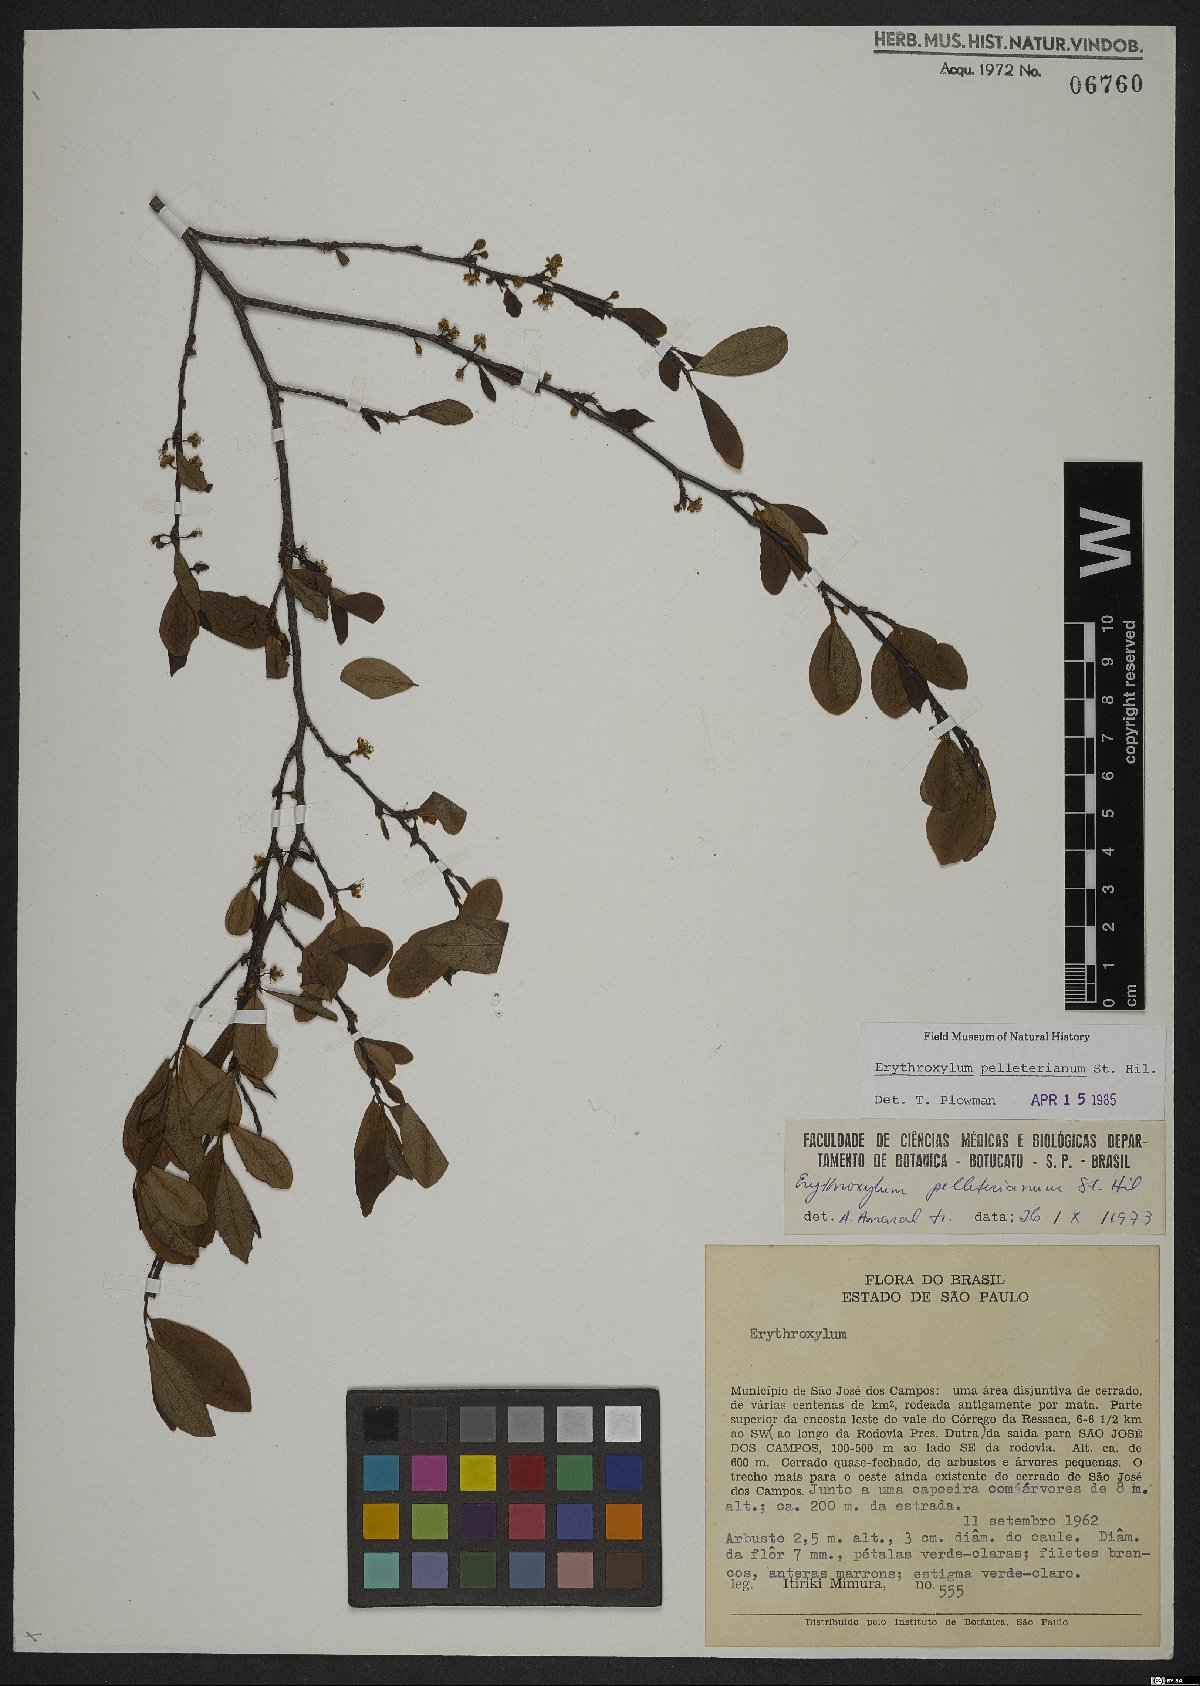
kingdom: Plantae
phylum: Tracheophyta
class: Magnoliopsida
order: Malpighiales
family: Erythroxylaceae
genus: Erythroxylum
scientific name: Erythroxylum pelleterianum
